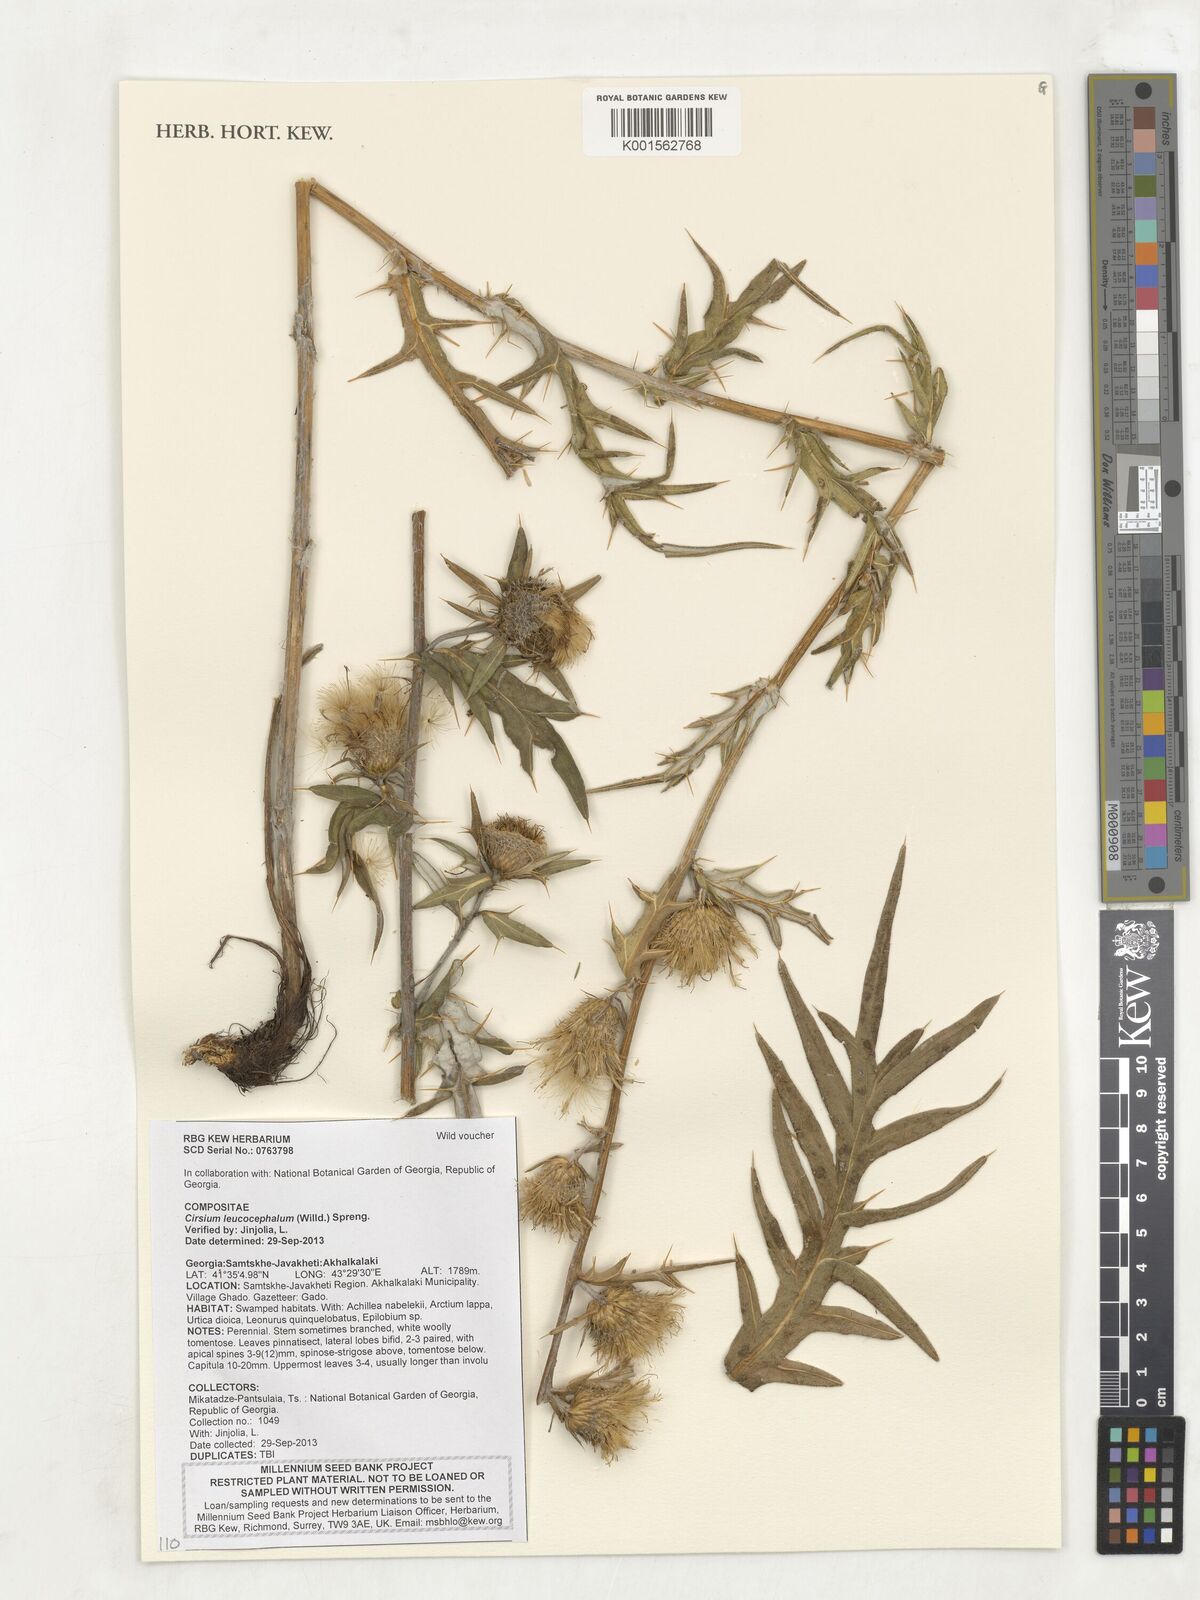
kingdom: Plantae
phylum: Tracheophyta
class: Magnoliopsida
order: Asterales
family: Asteraceae
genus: Lophiolepis
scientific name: Lophiolepis lappacea
